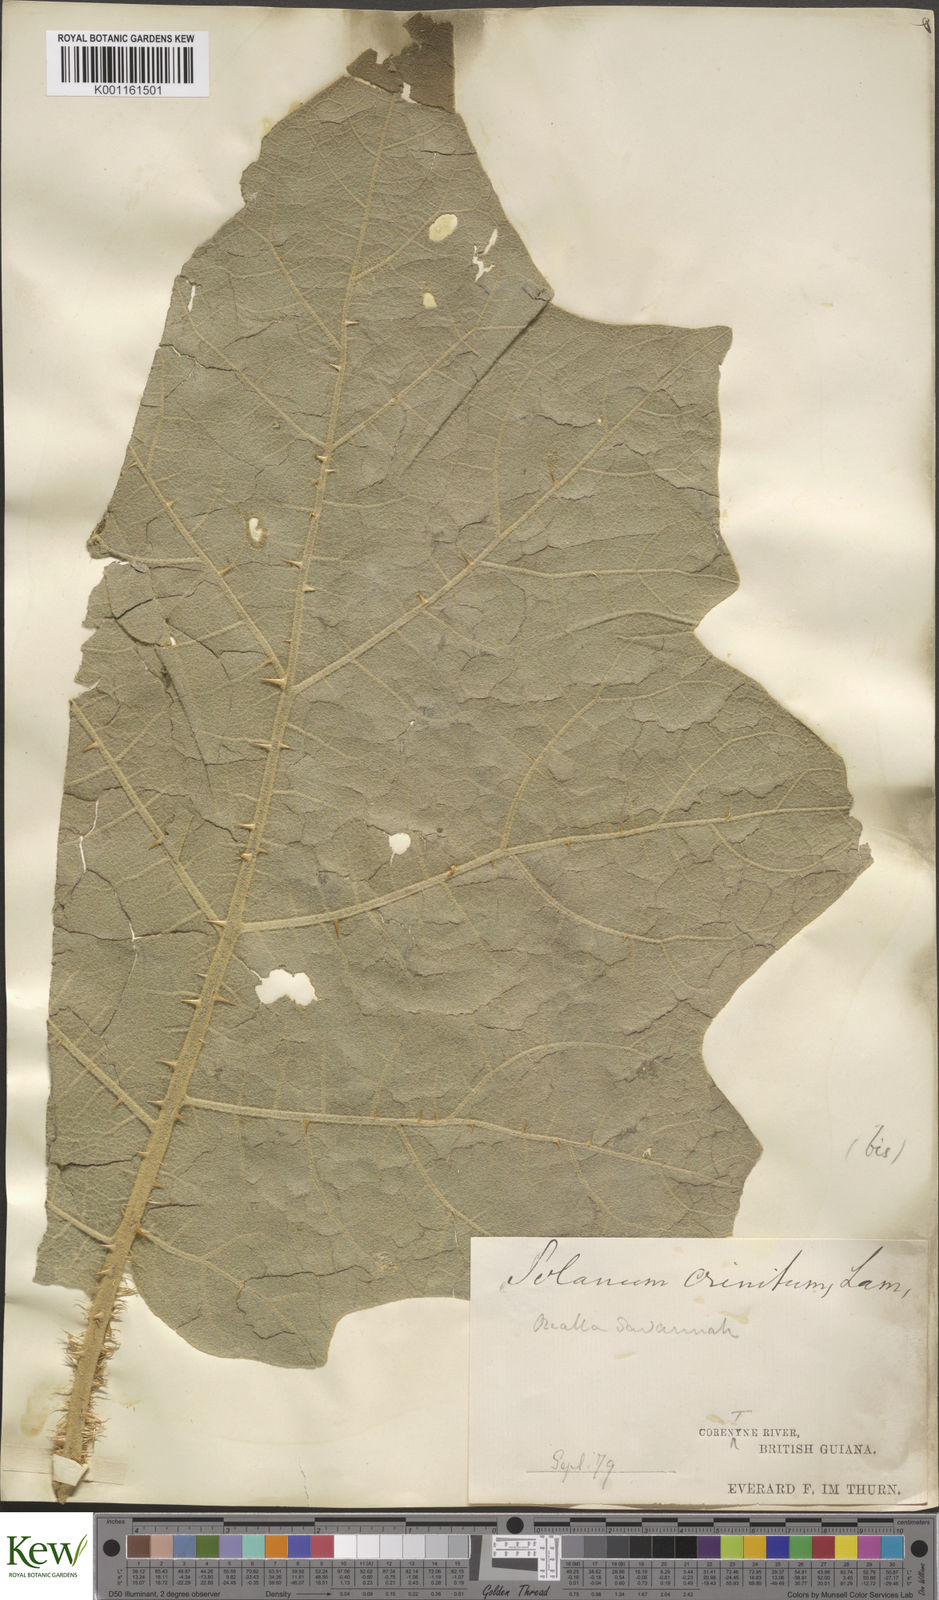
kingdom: Plantae
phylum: Tracheophyta
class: Magnoliopsida
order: Solanales
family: Solanaceae
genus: Solanum
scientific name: Solanum crinitum
